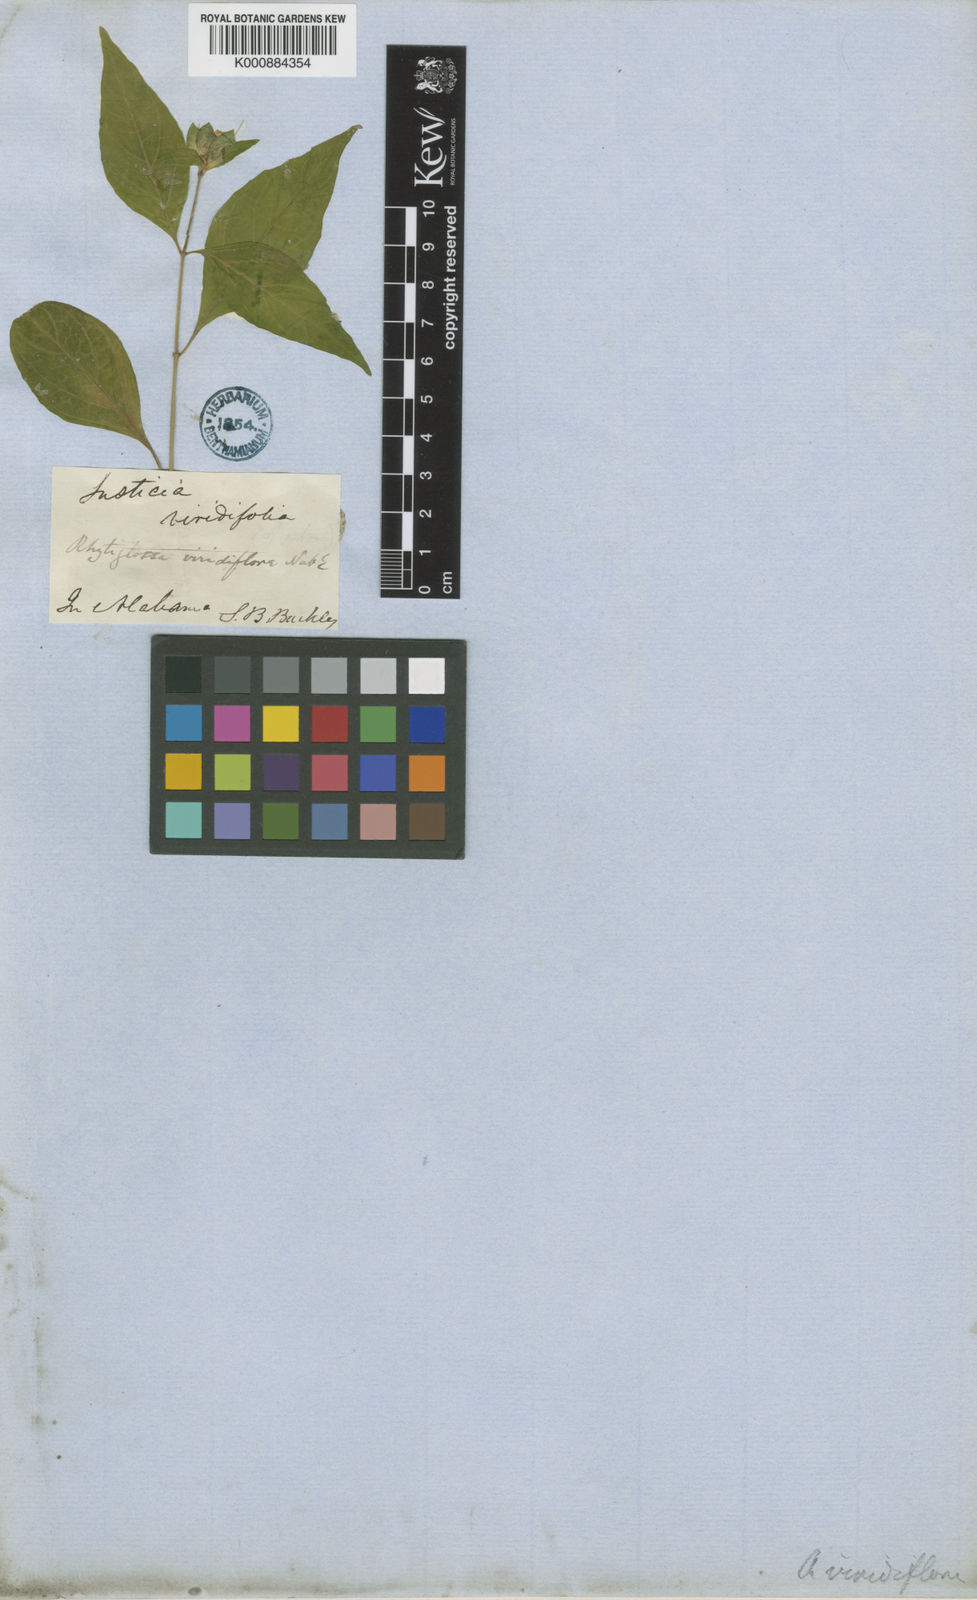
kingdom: Plantae
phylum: Tracheophyta
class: Magnoliopsida
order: Lamiales
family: Acanthaceae
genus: Yeatesia
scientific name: Yeatesia viridiflora
